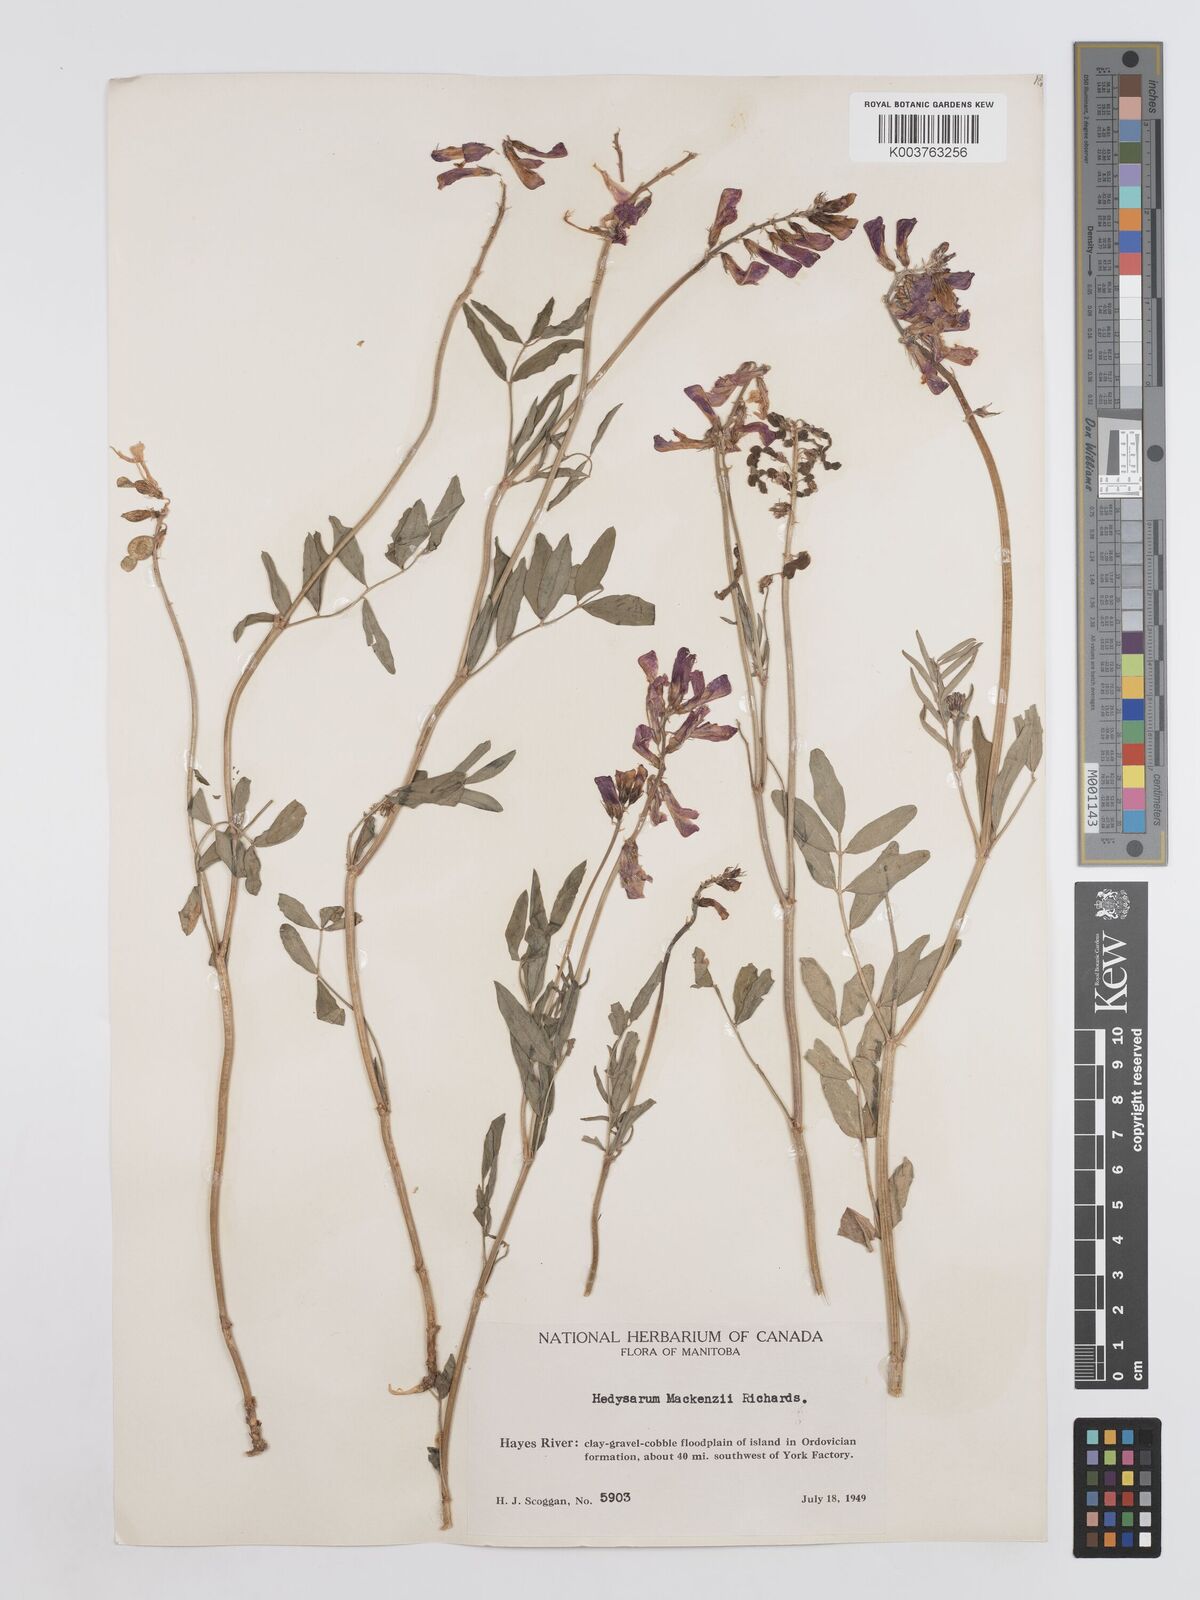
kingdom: Plantae
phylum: Tracheophyta
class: Magnoliopsida
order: Fabales
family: Fabaceae
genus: Hedysarum
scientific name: Hedysarum boreale
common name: Northern sweet-vetch
